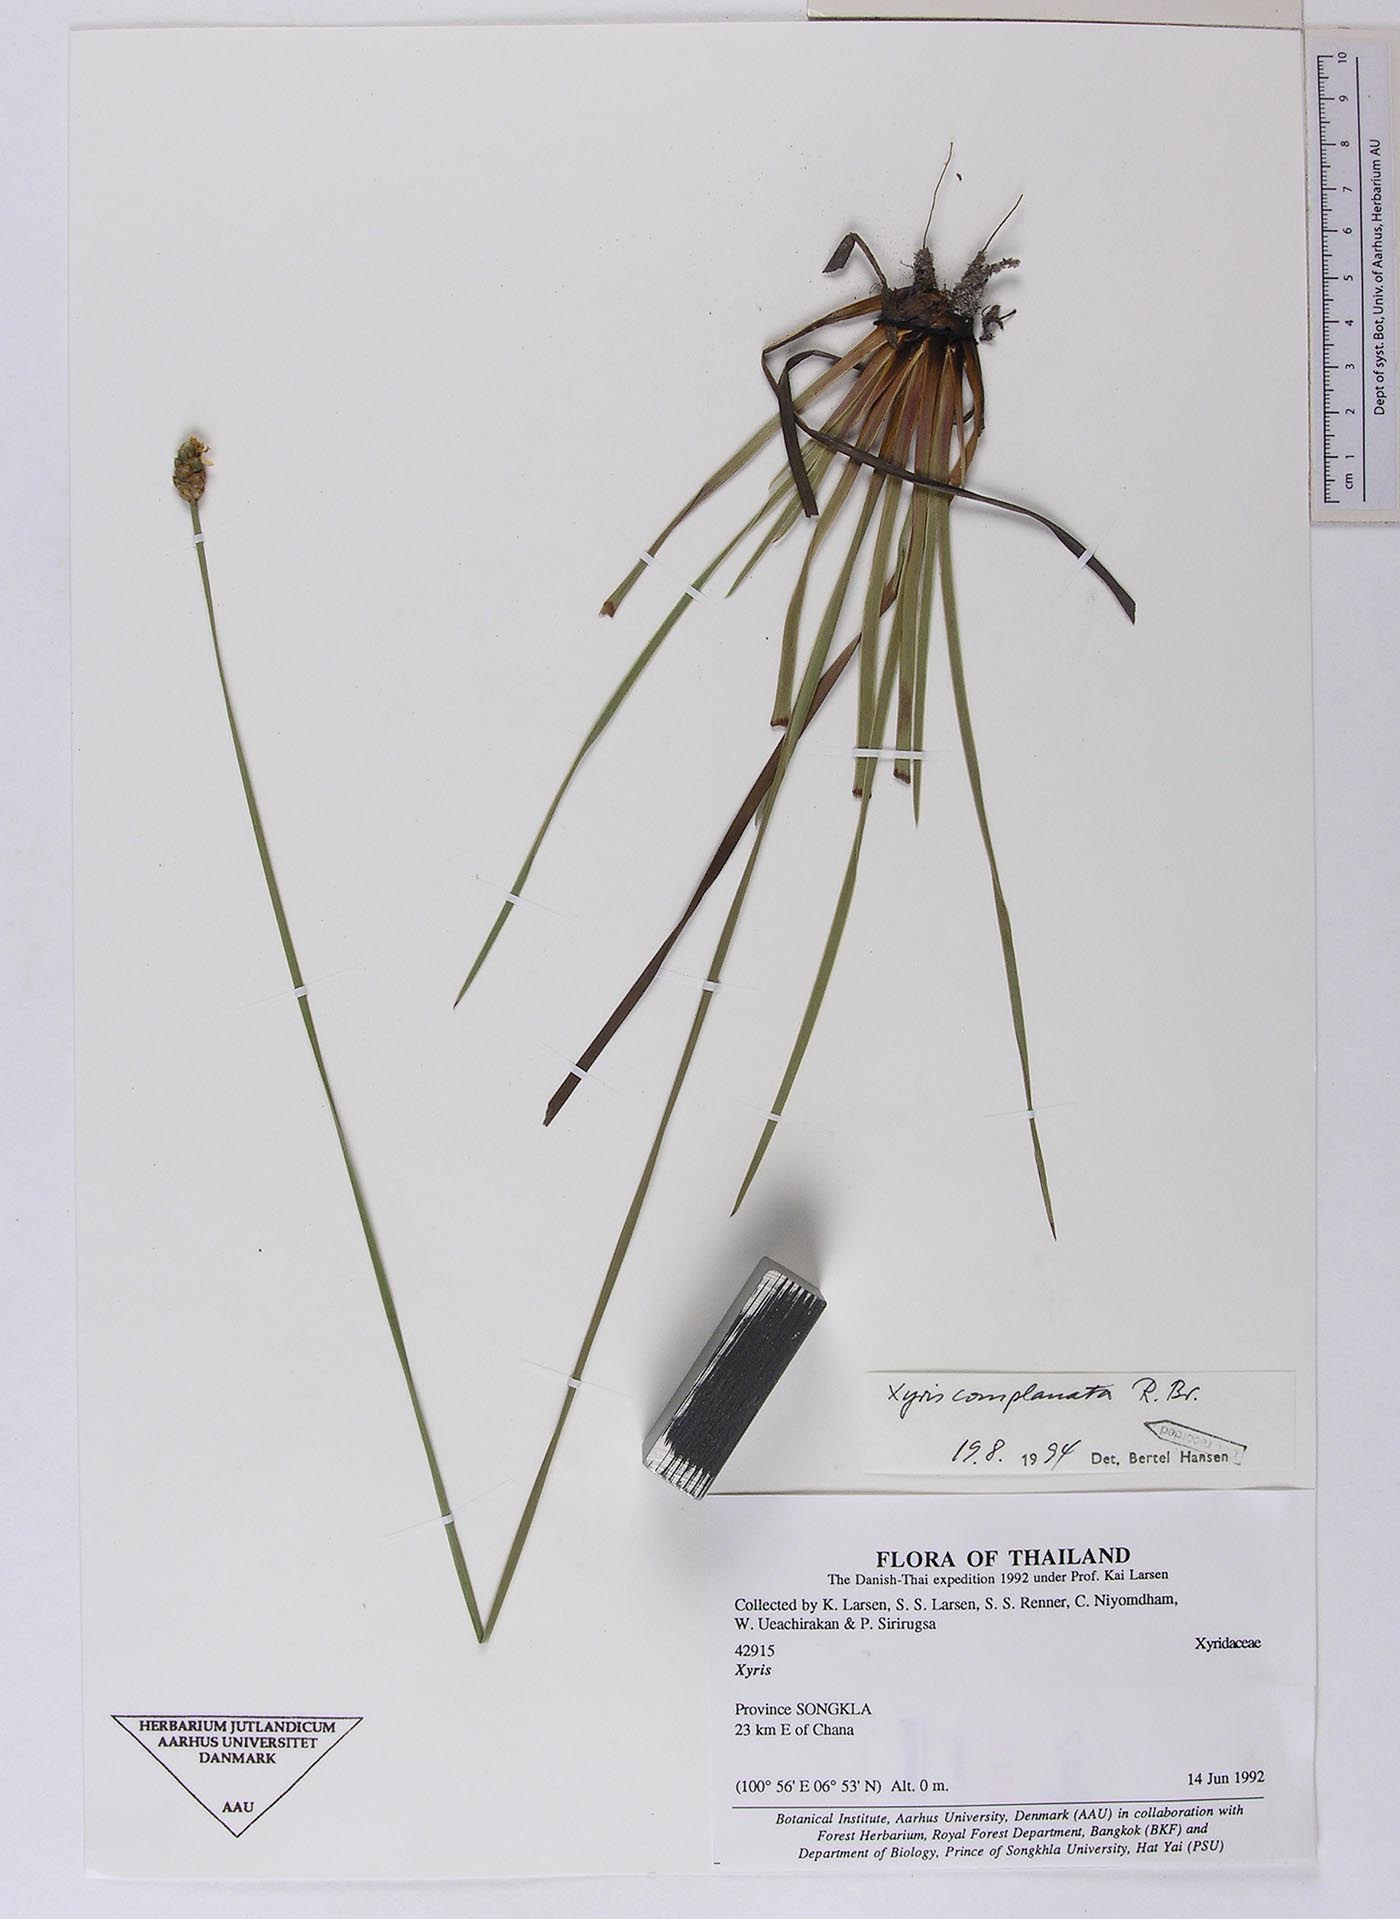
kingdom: Plantae
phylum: Tracheophyta
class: Liliopsida
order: Poales
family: Xyridaceae
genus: Xyris
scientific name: Xyris complanata
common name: Hawai'i yelloweyed grass
